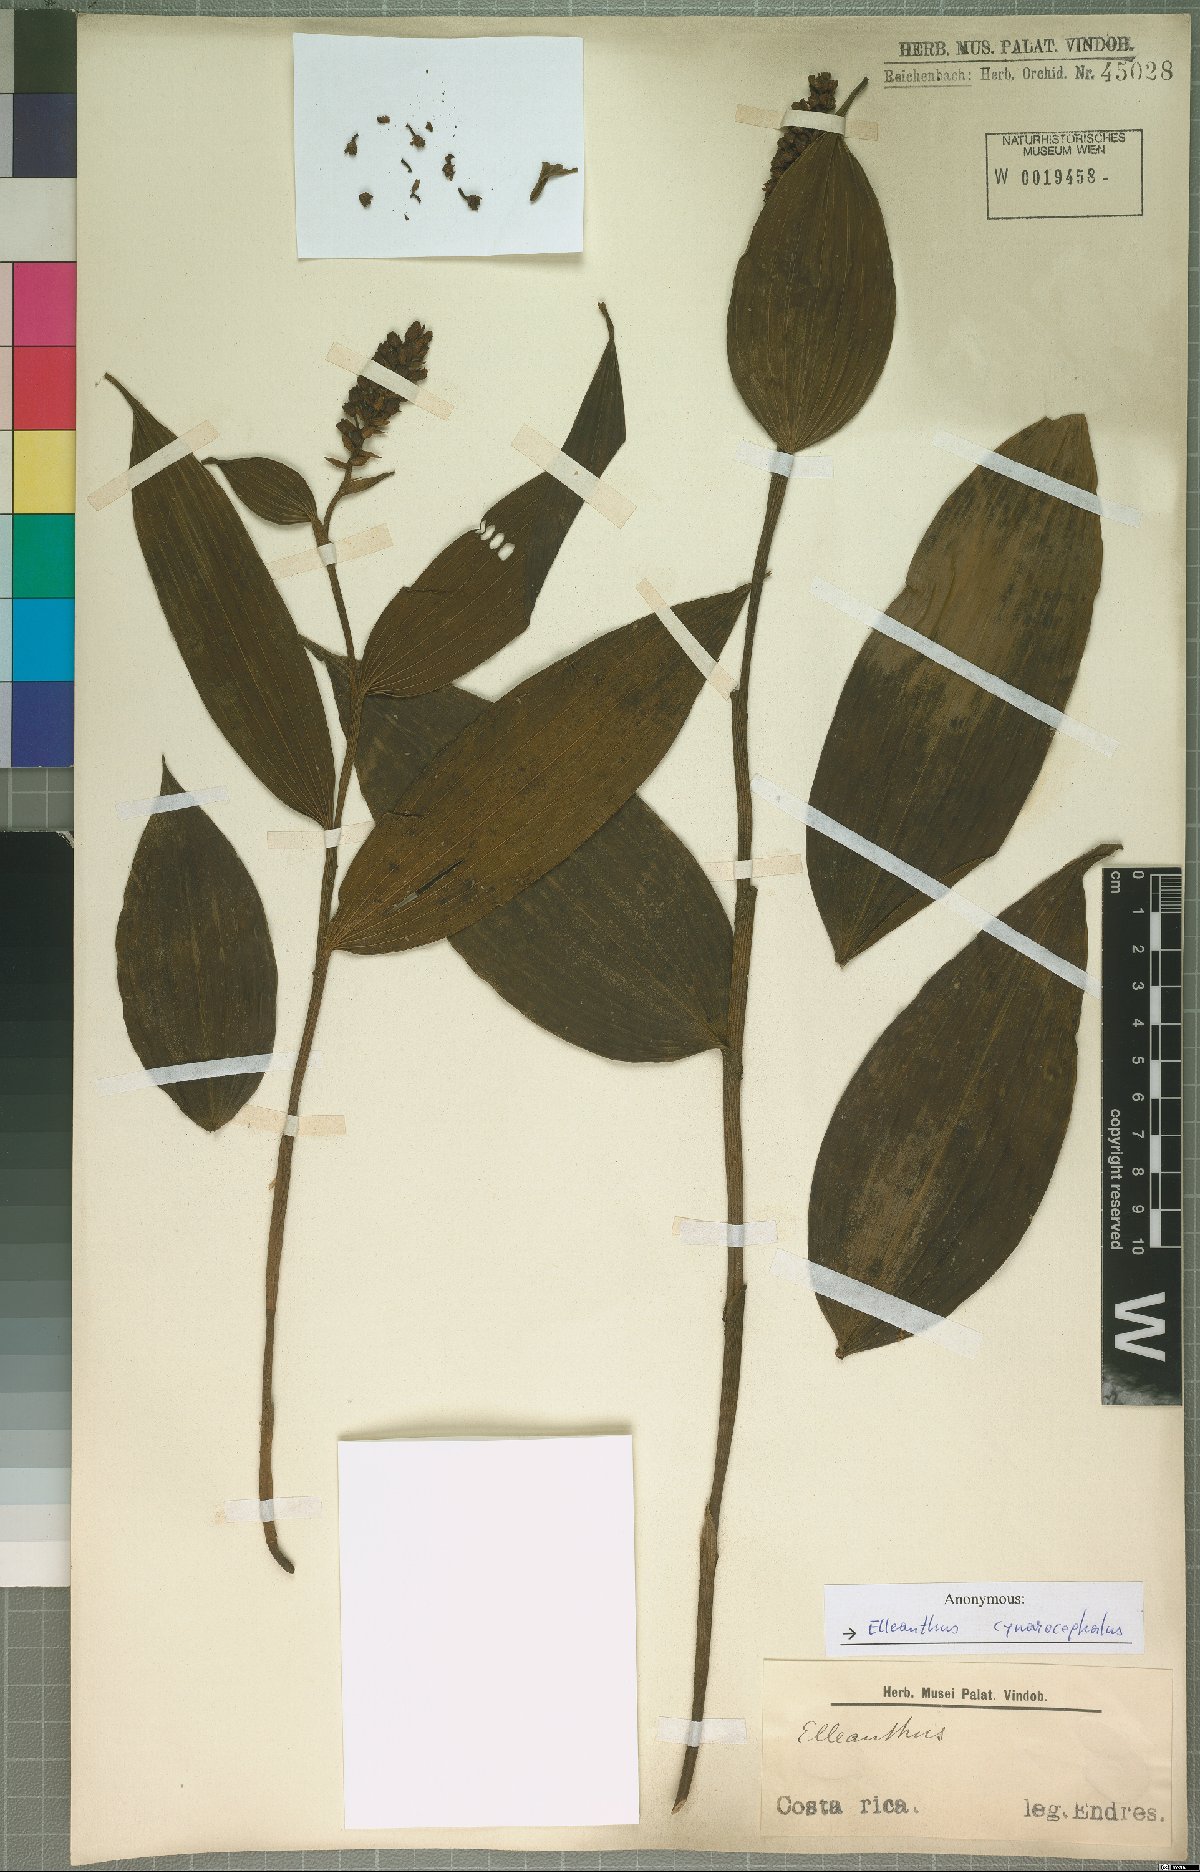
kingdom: Plantae
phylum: Tracheophyta
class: Liliopsida
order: Asparagales
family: Orchidaceae
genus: Elleanthus
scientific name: Elleanthus capitatus
